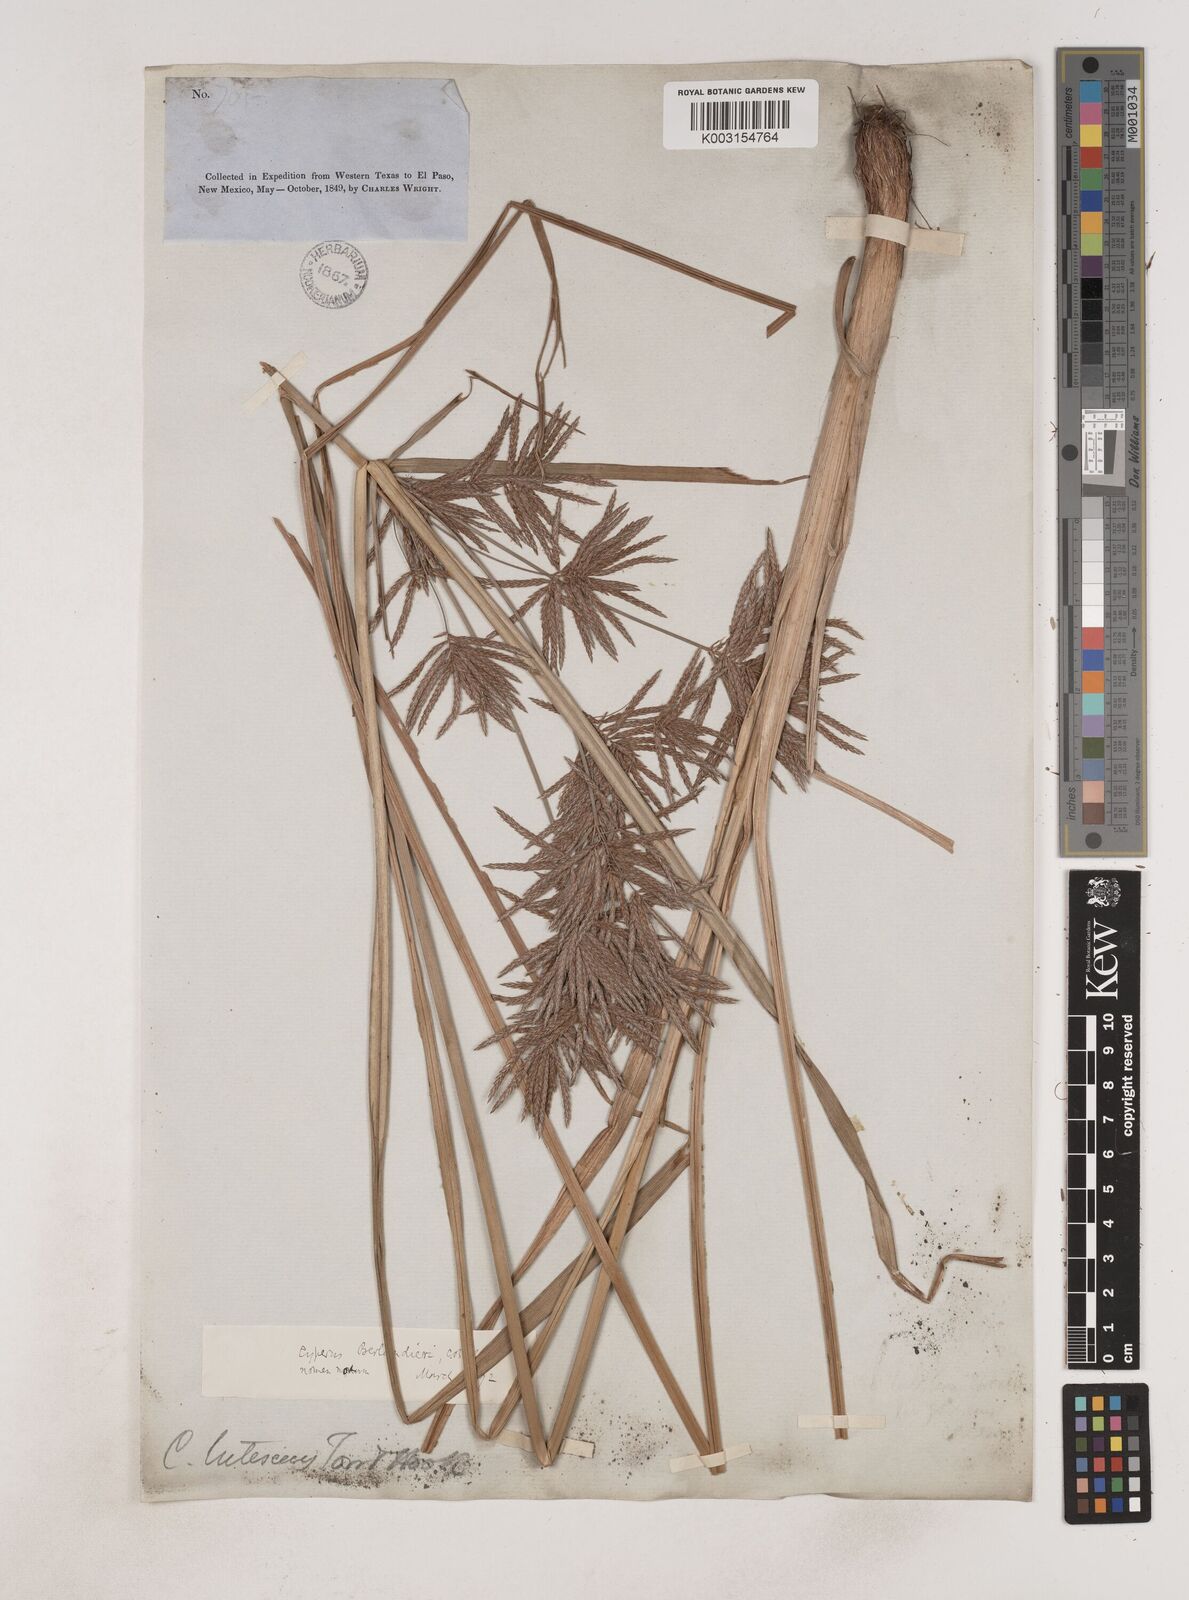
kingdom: Plantae
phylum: Tracheophyta
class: Liliopsida
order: Poales
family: Cyperaceae
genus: Cyperus
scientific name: Cyperus setigerus
